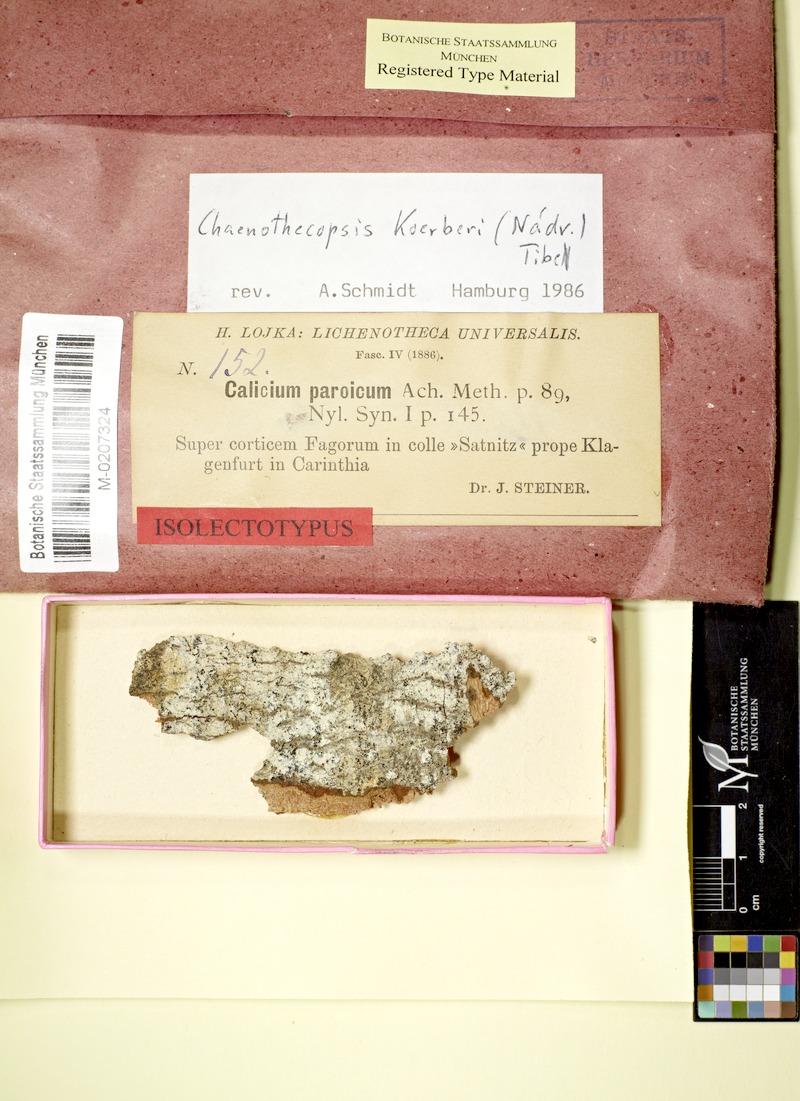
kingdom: Fungi
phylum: Ascomycota
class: Eurotiomycetes
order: Mycocaliciales
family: Mycocaliciaceae
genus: Chaenothecopsis
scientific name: Chaenothecopsis ochroleuca
